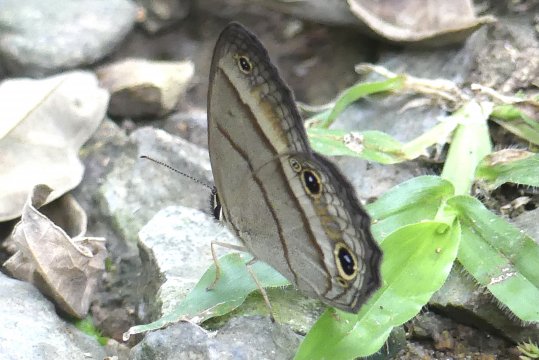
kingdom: Animalia
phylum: Arthropoda
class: Insecta
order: Lepidoptera
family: Nymphalidae
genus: Euptychia
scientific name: Euptychia Cissia pompilia
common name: Plain Satyr
